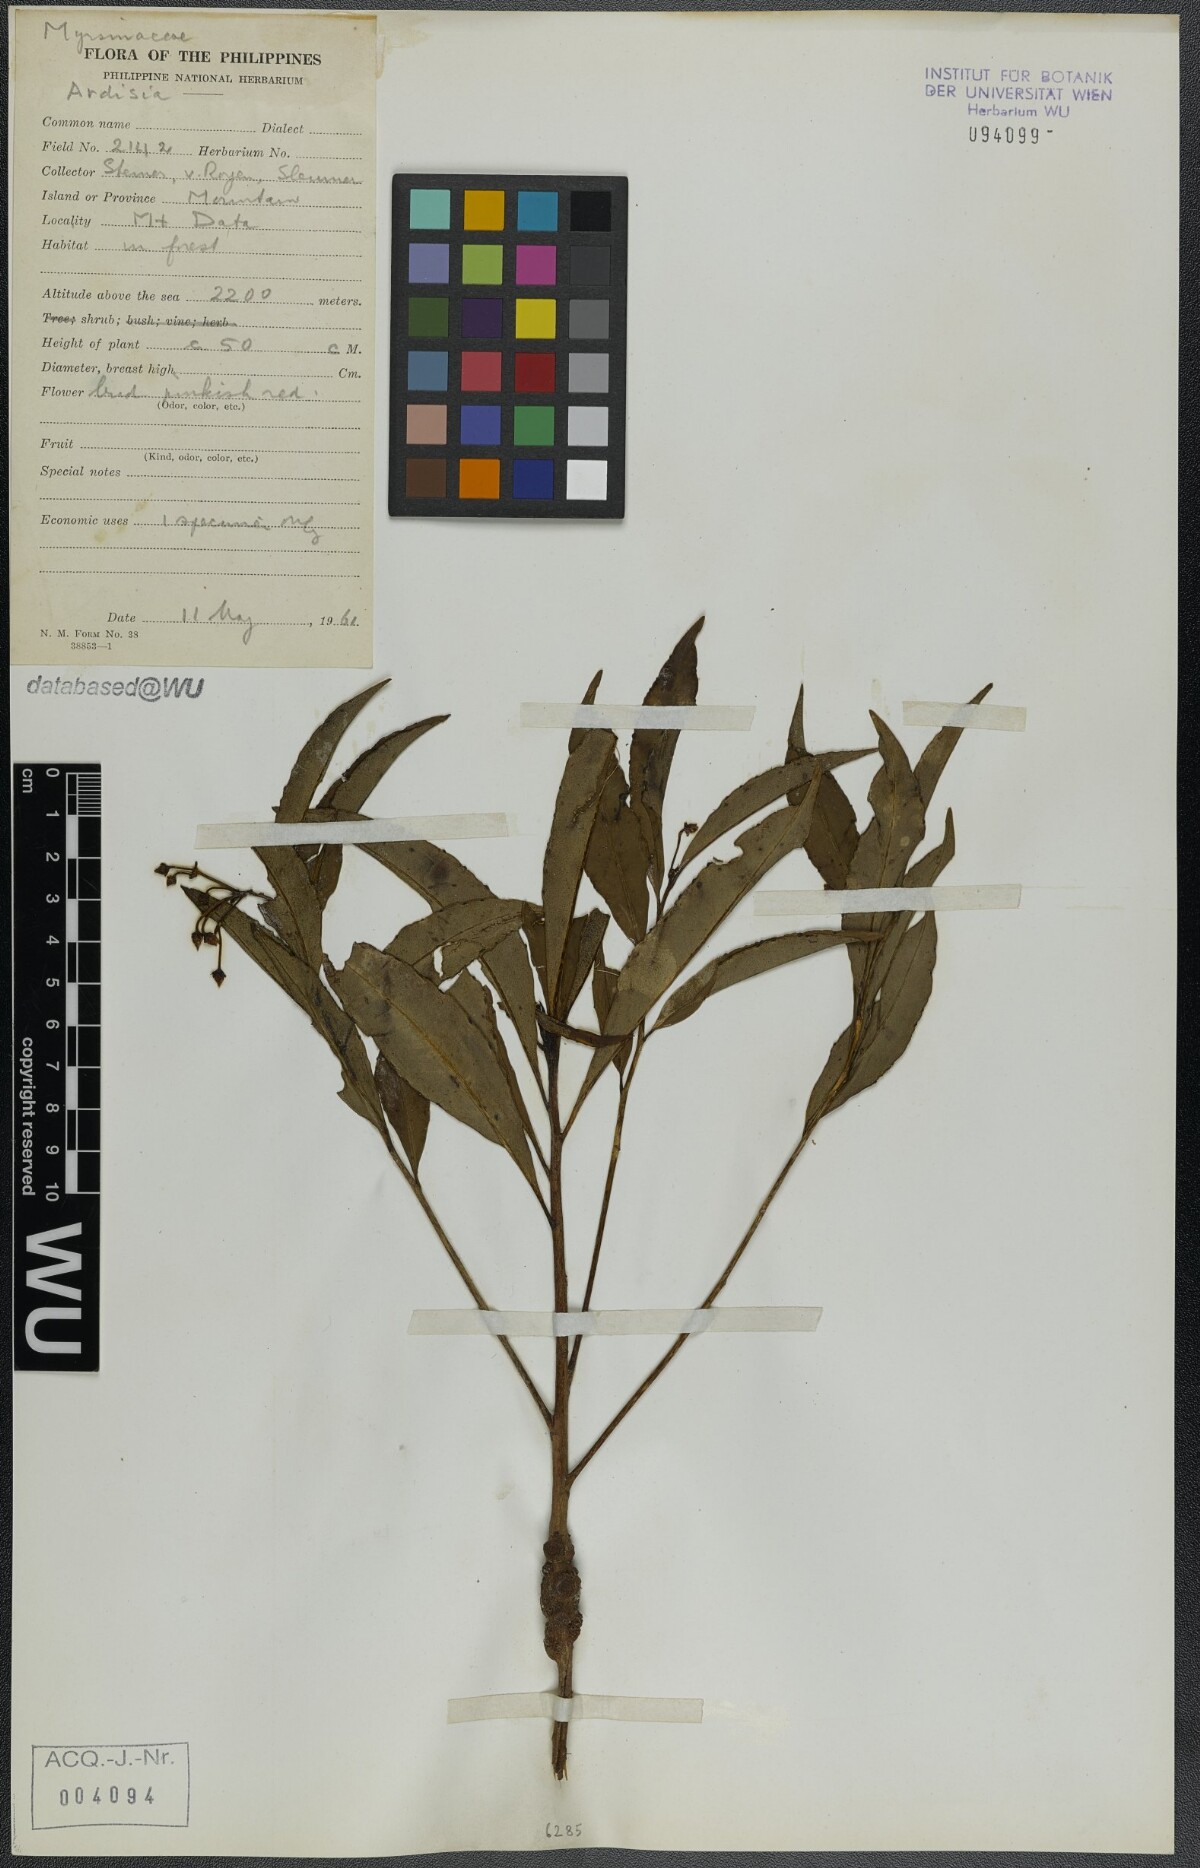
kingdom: Plantae
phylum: Tracheophyta
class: Magnoliopsida
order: Ericales
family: Primulaceae
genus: Ardisia
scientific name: Ardisia
